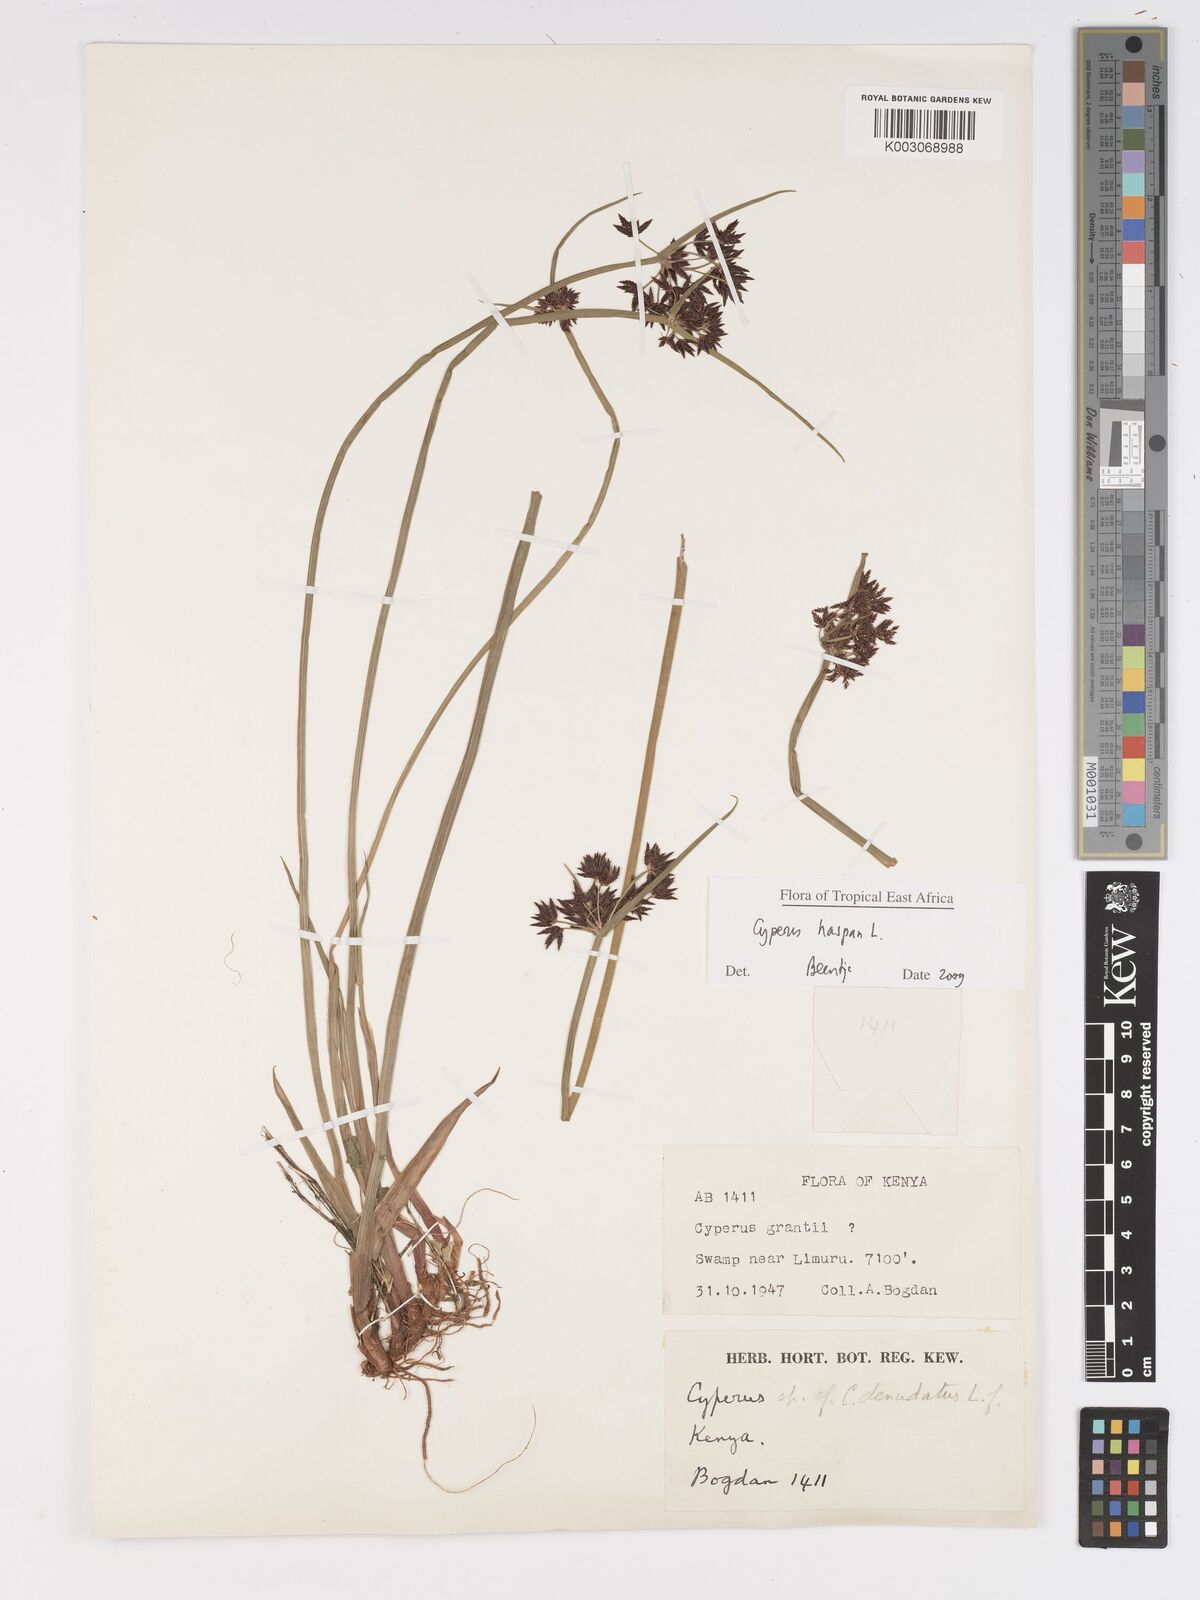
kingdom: Plantae
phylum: Tracheophyta
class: Liliopsida
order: Poales
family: Cyperaceae
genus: Cyperus
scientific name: Cyperus haspan
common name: Haspan flatsedge
